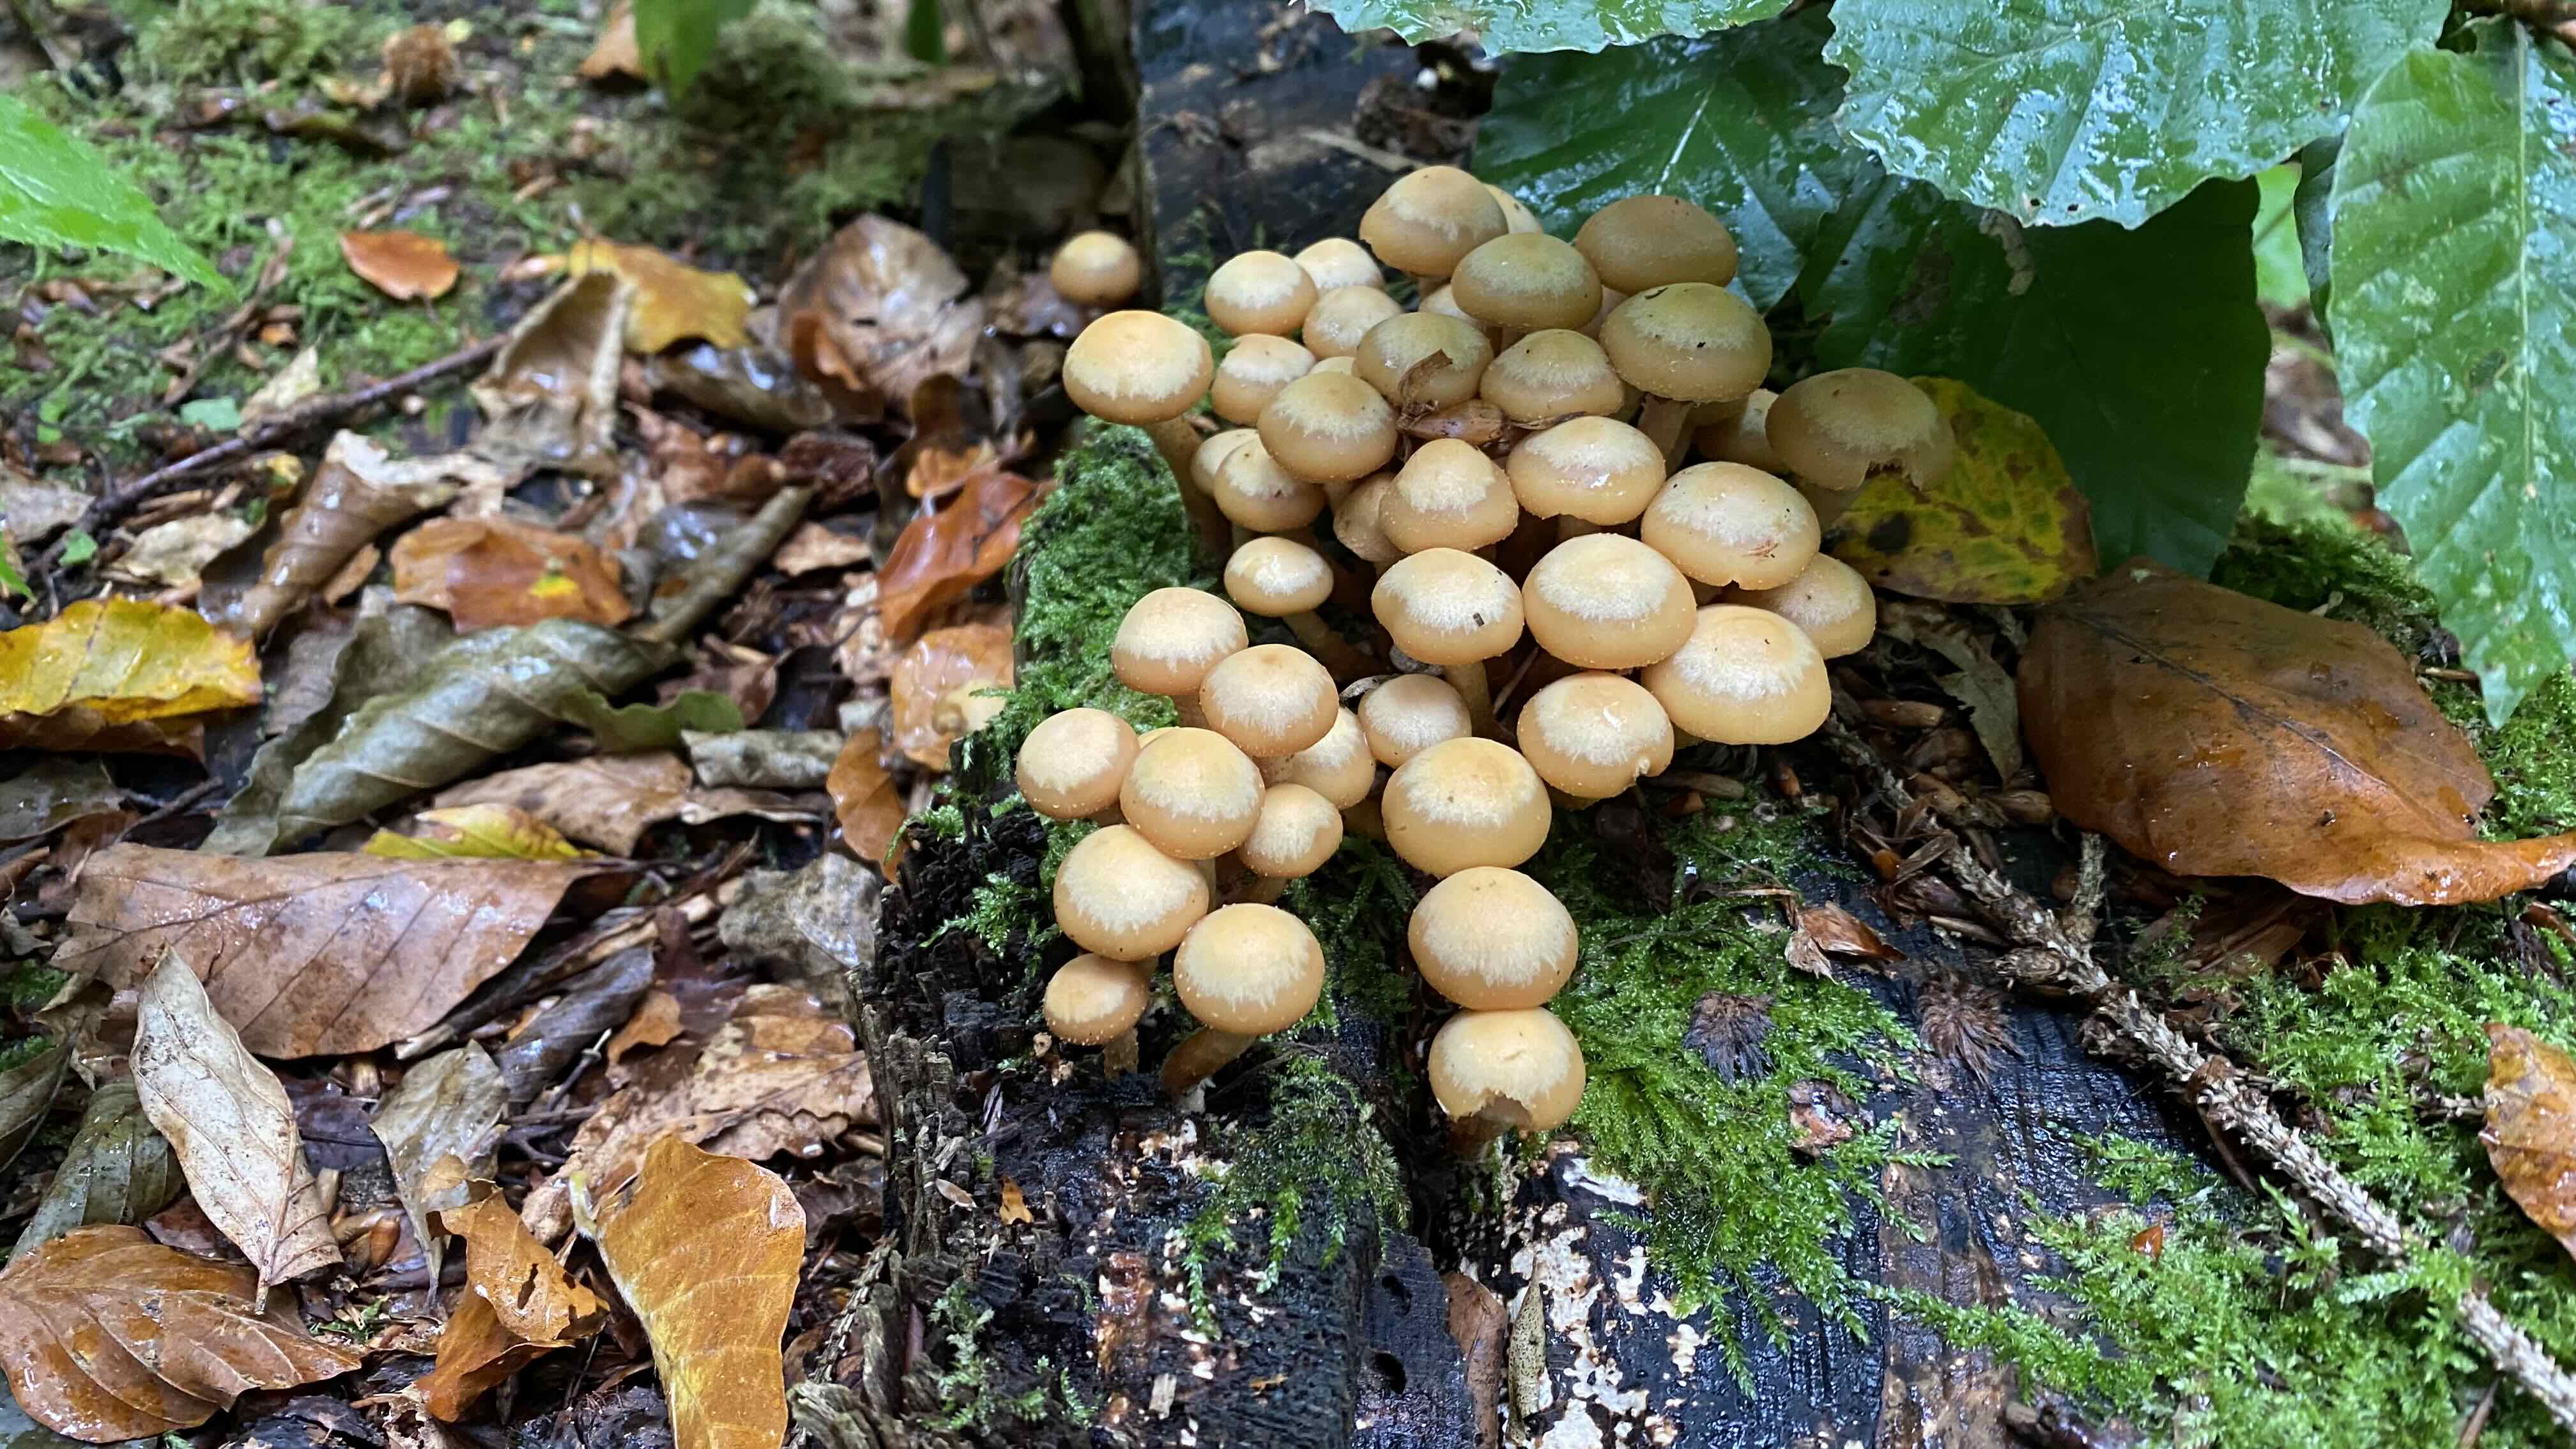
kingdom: Fungi
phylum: Basidiomycota
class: Agaricomycetes
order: Agaricales
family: Strophariaceae
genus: Kuehneromyces
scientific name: Kuehneromyces mutabilis
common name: foranderlig skælhat
